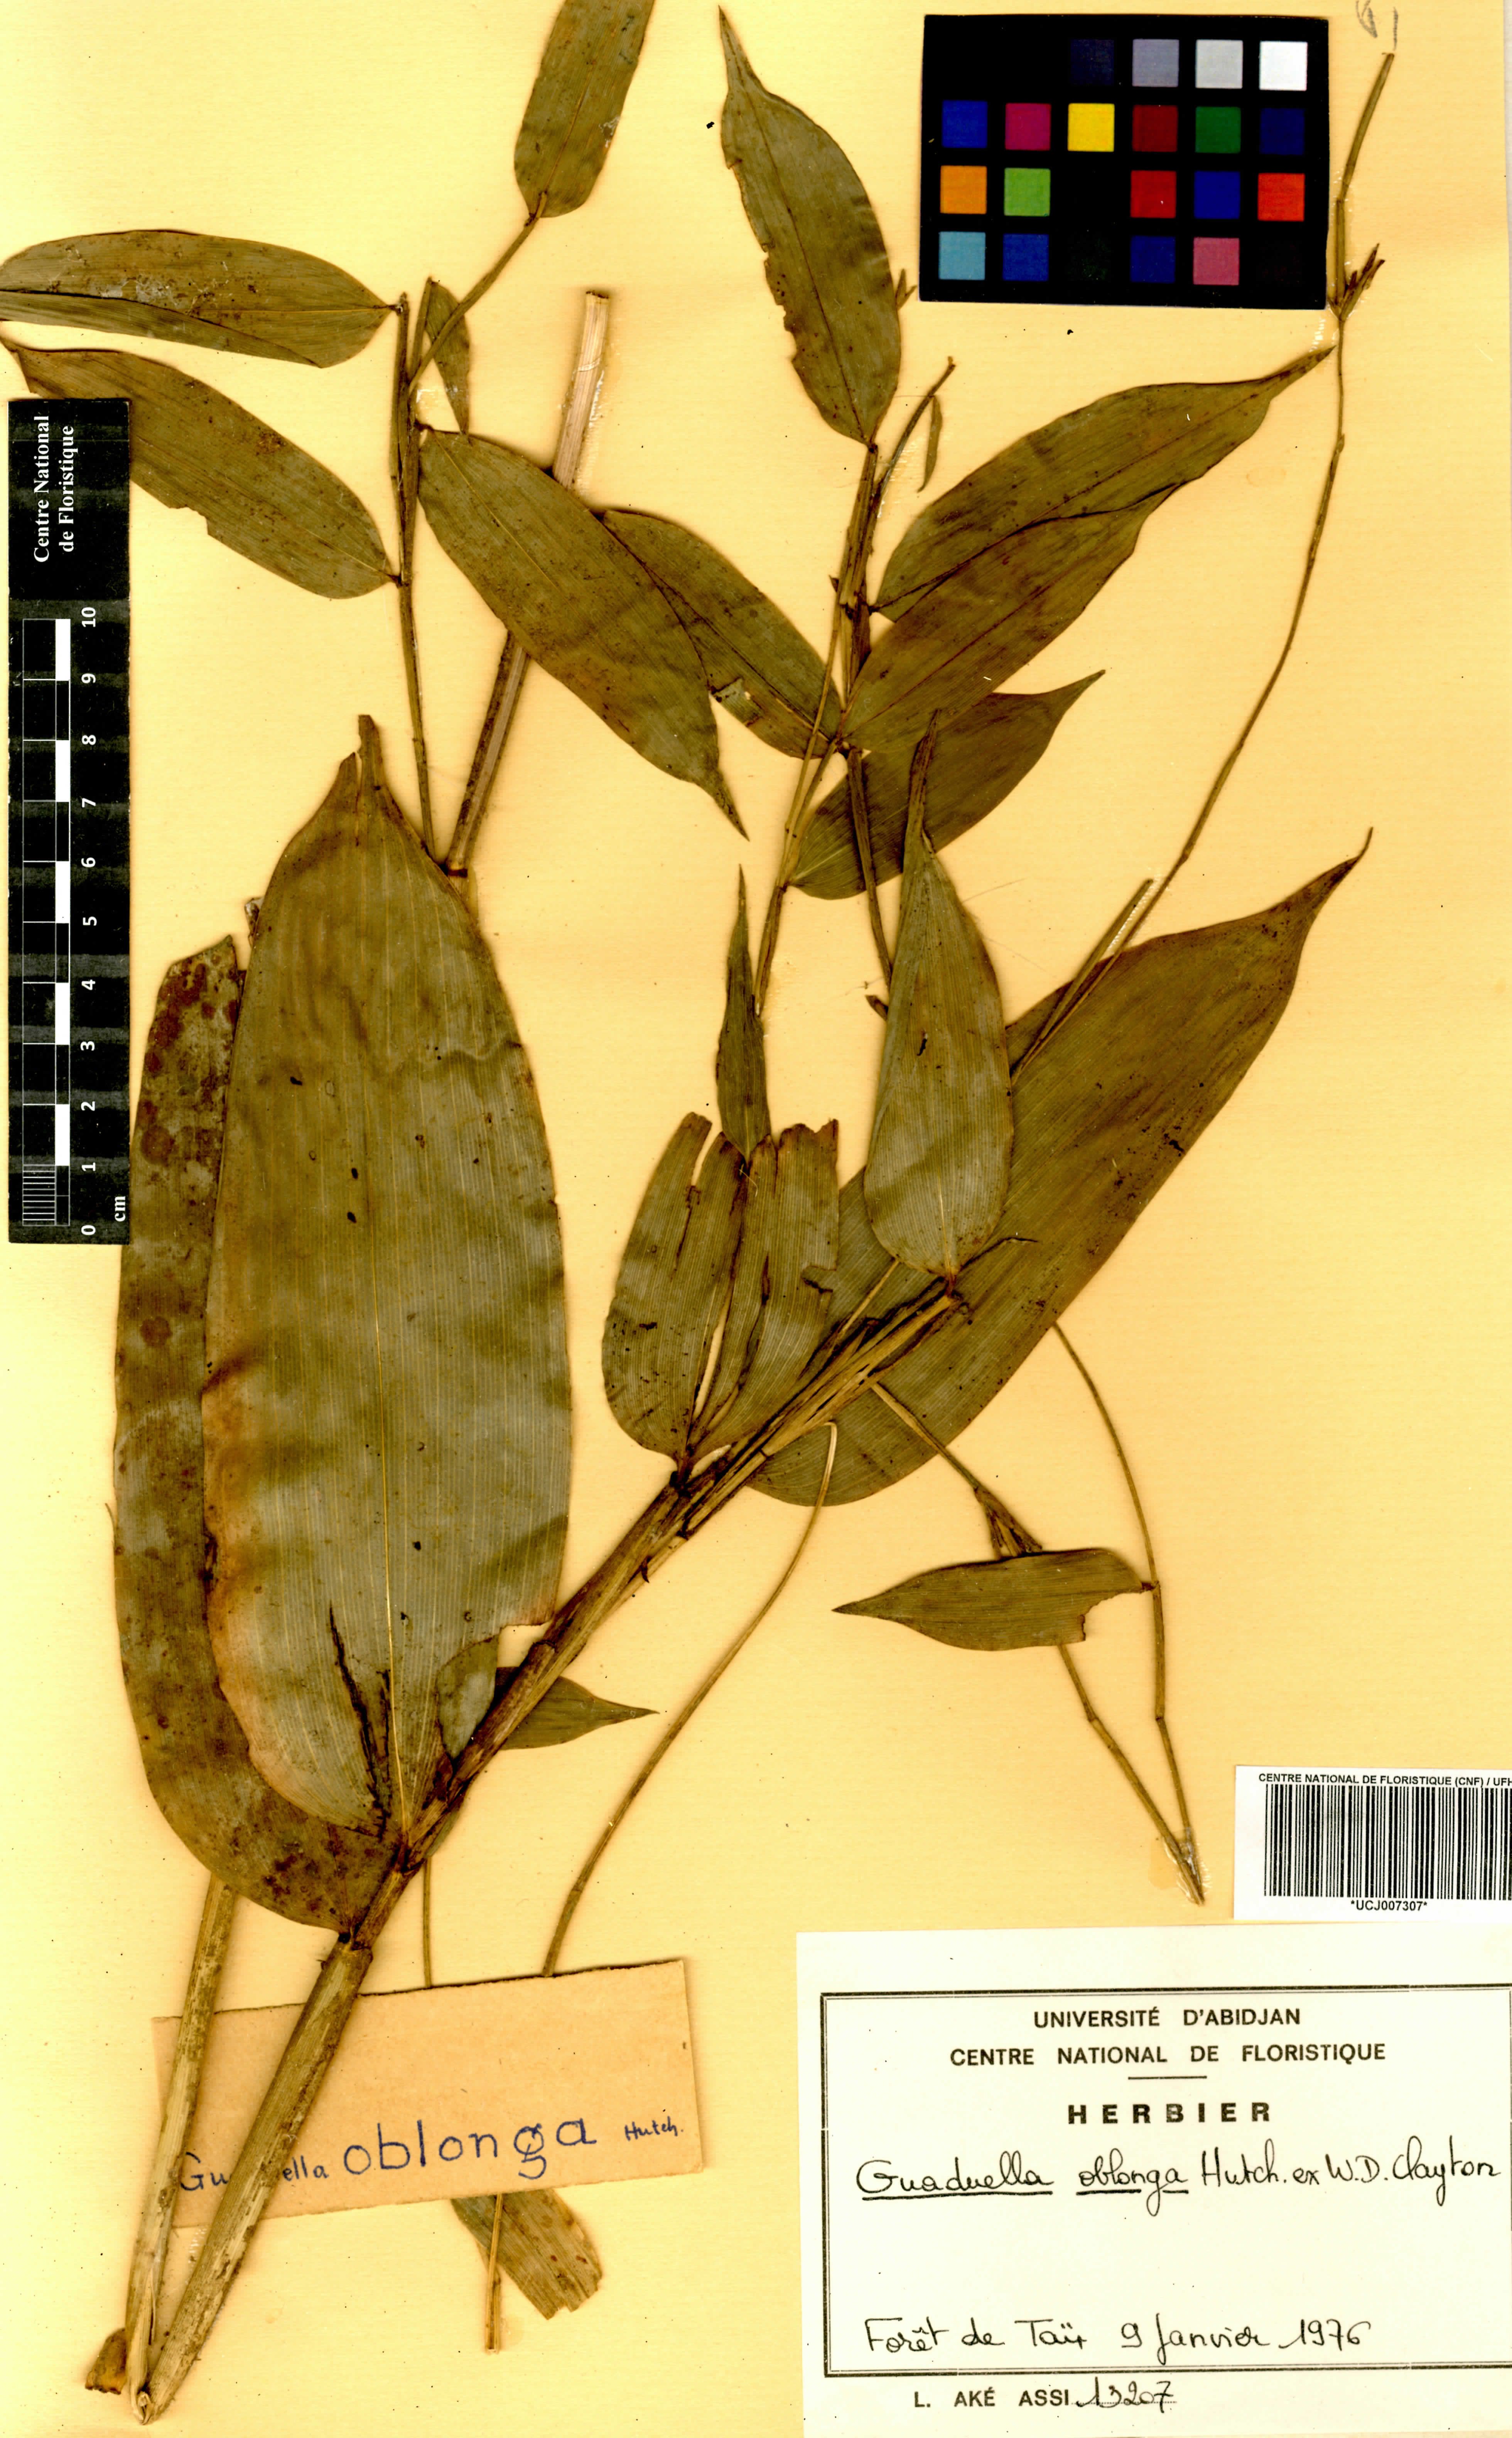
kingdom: Plantae
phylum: Tracheophyta
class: Liliopsida
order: Poales
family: Poaceae
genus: Guaduella
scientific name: Guaduella oblonga
